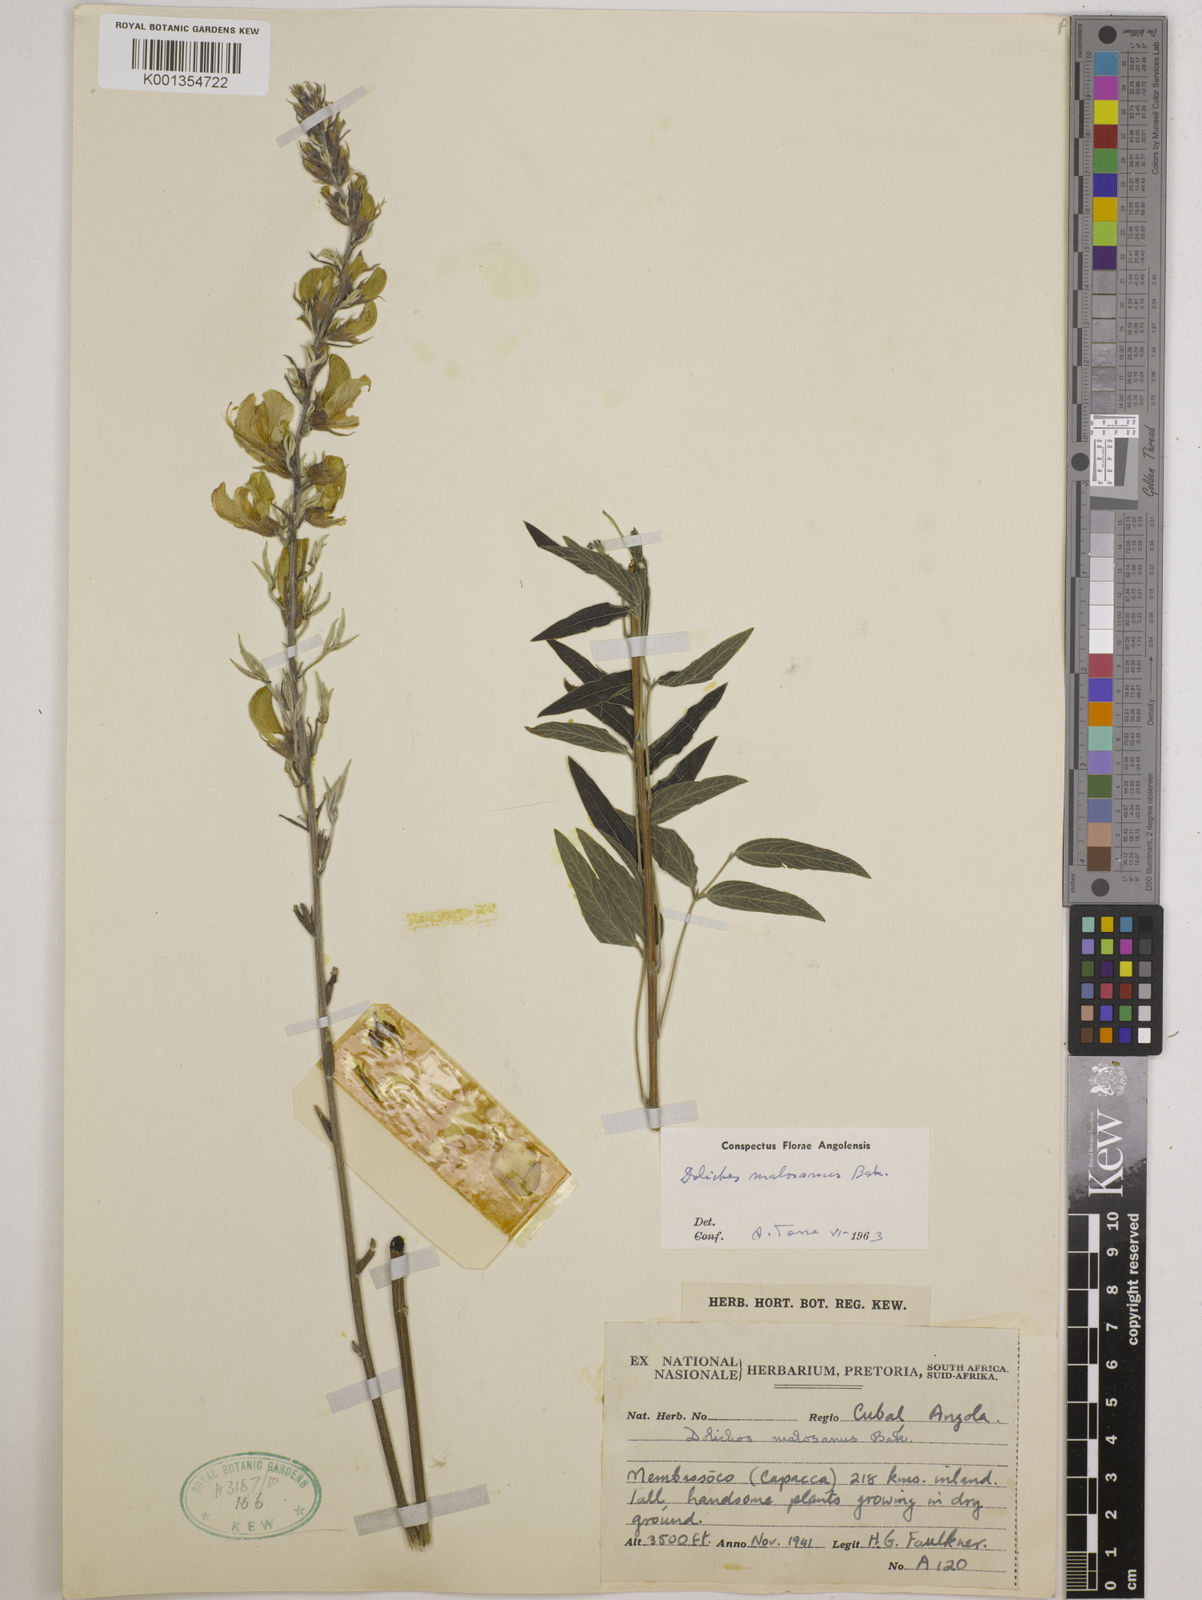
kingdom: Plantae
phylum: Tracheophyta
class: Magnoliopsida
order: Fabales
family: Fabaceae
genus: Dolichos
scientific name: Dolichos kilimandscharicus
